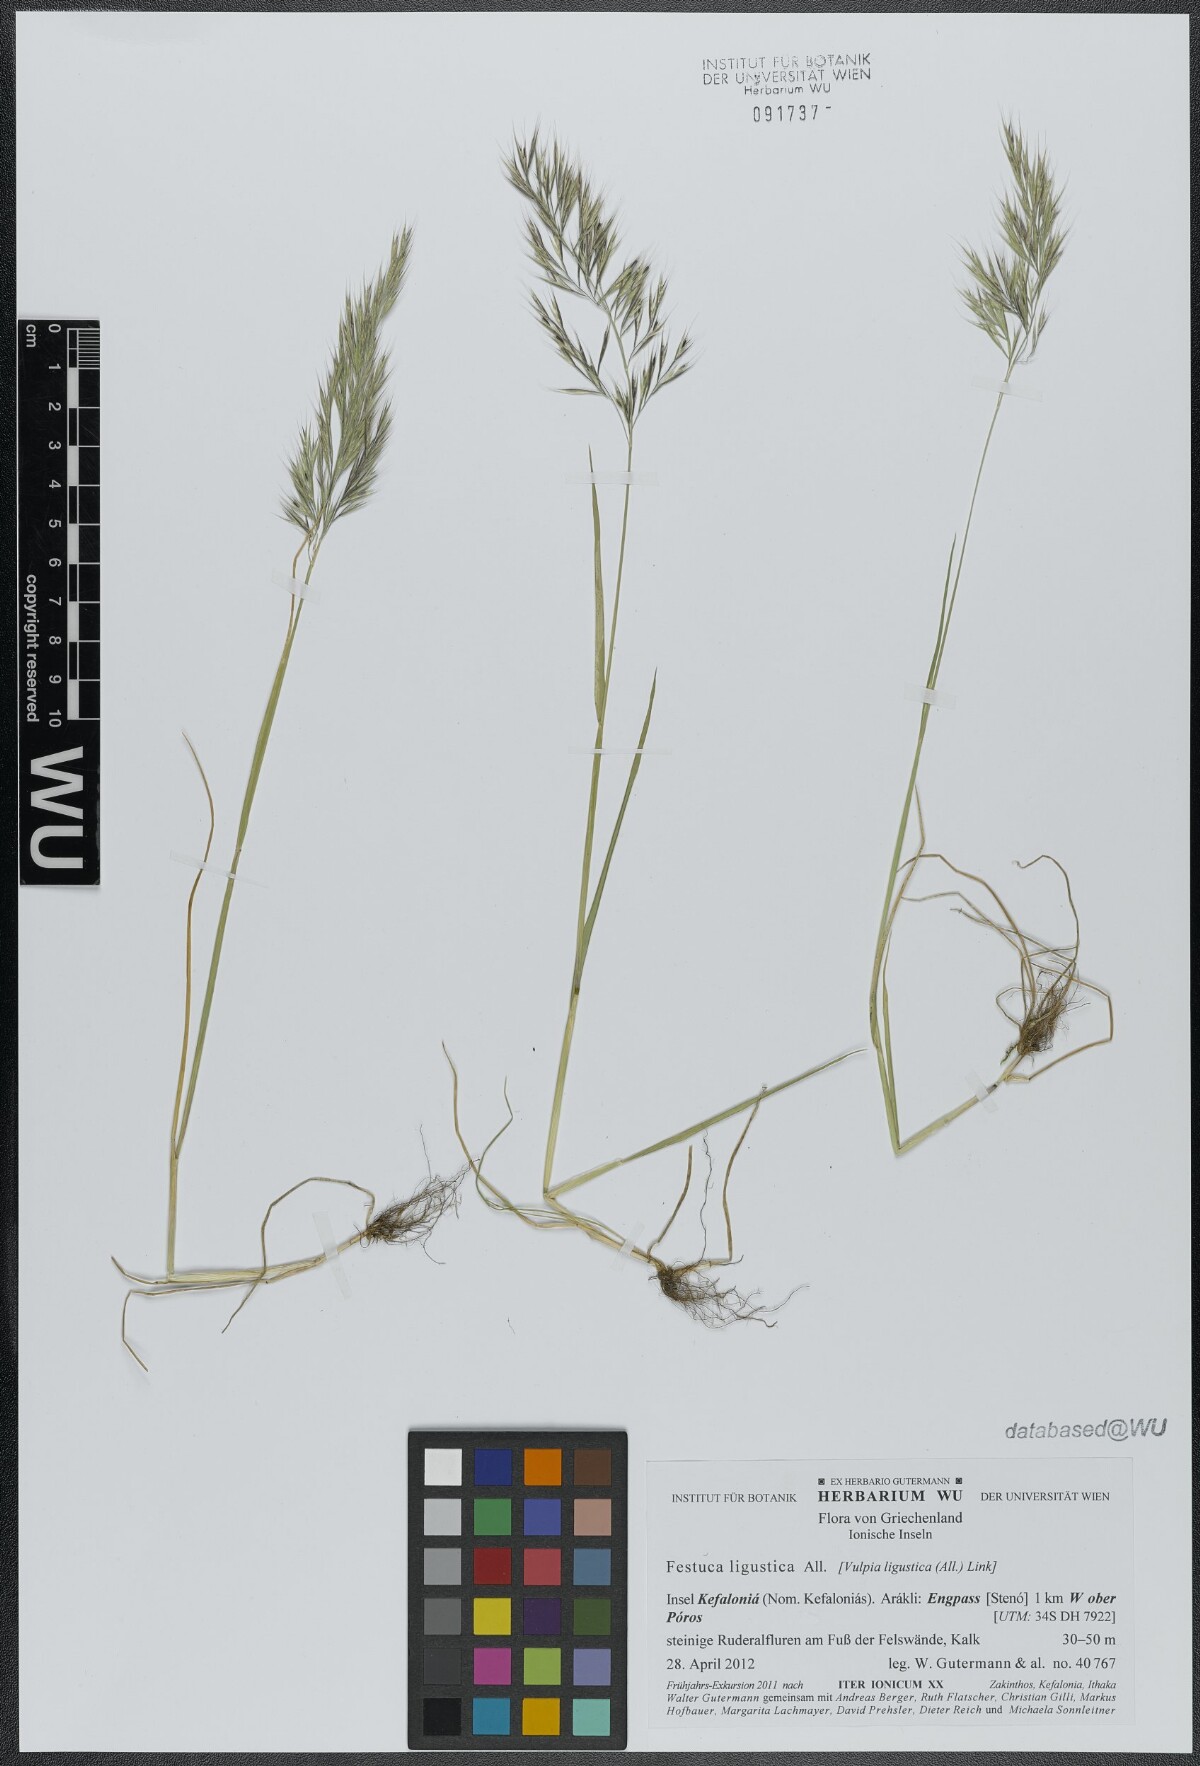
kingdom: Plantae
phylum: Tracheophyta
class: Liliopsida
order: Poales
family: Poaceae
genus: Festuca
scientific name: Festuca ligustica
